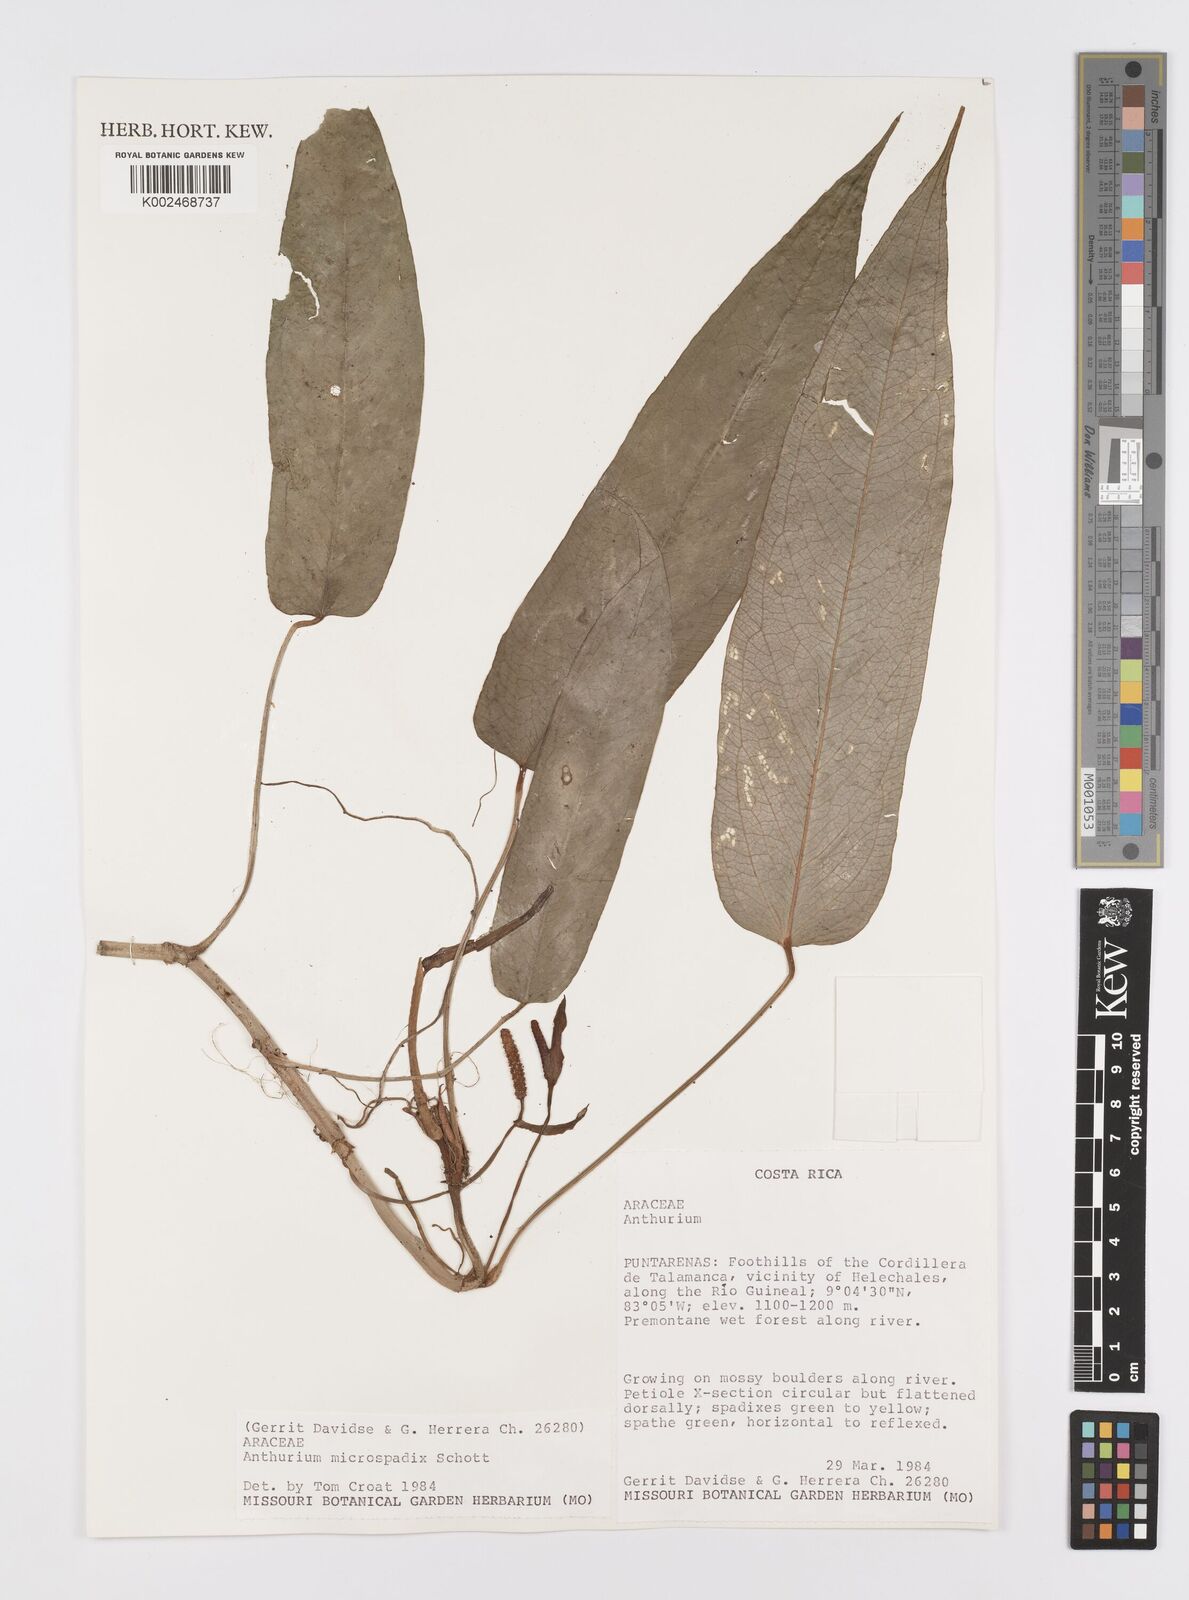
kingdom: Plantae
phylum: Tracheophyta
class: Liliopsida
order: Alismatales
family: Araceae
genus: Anthurium
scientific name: Anthurium microspadix
